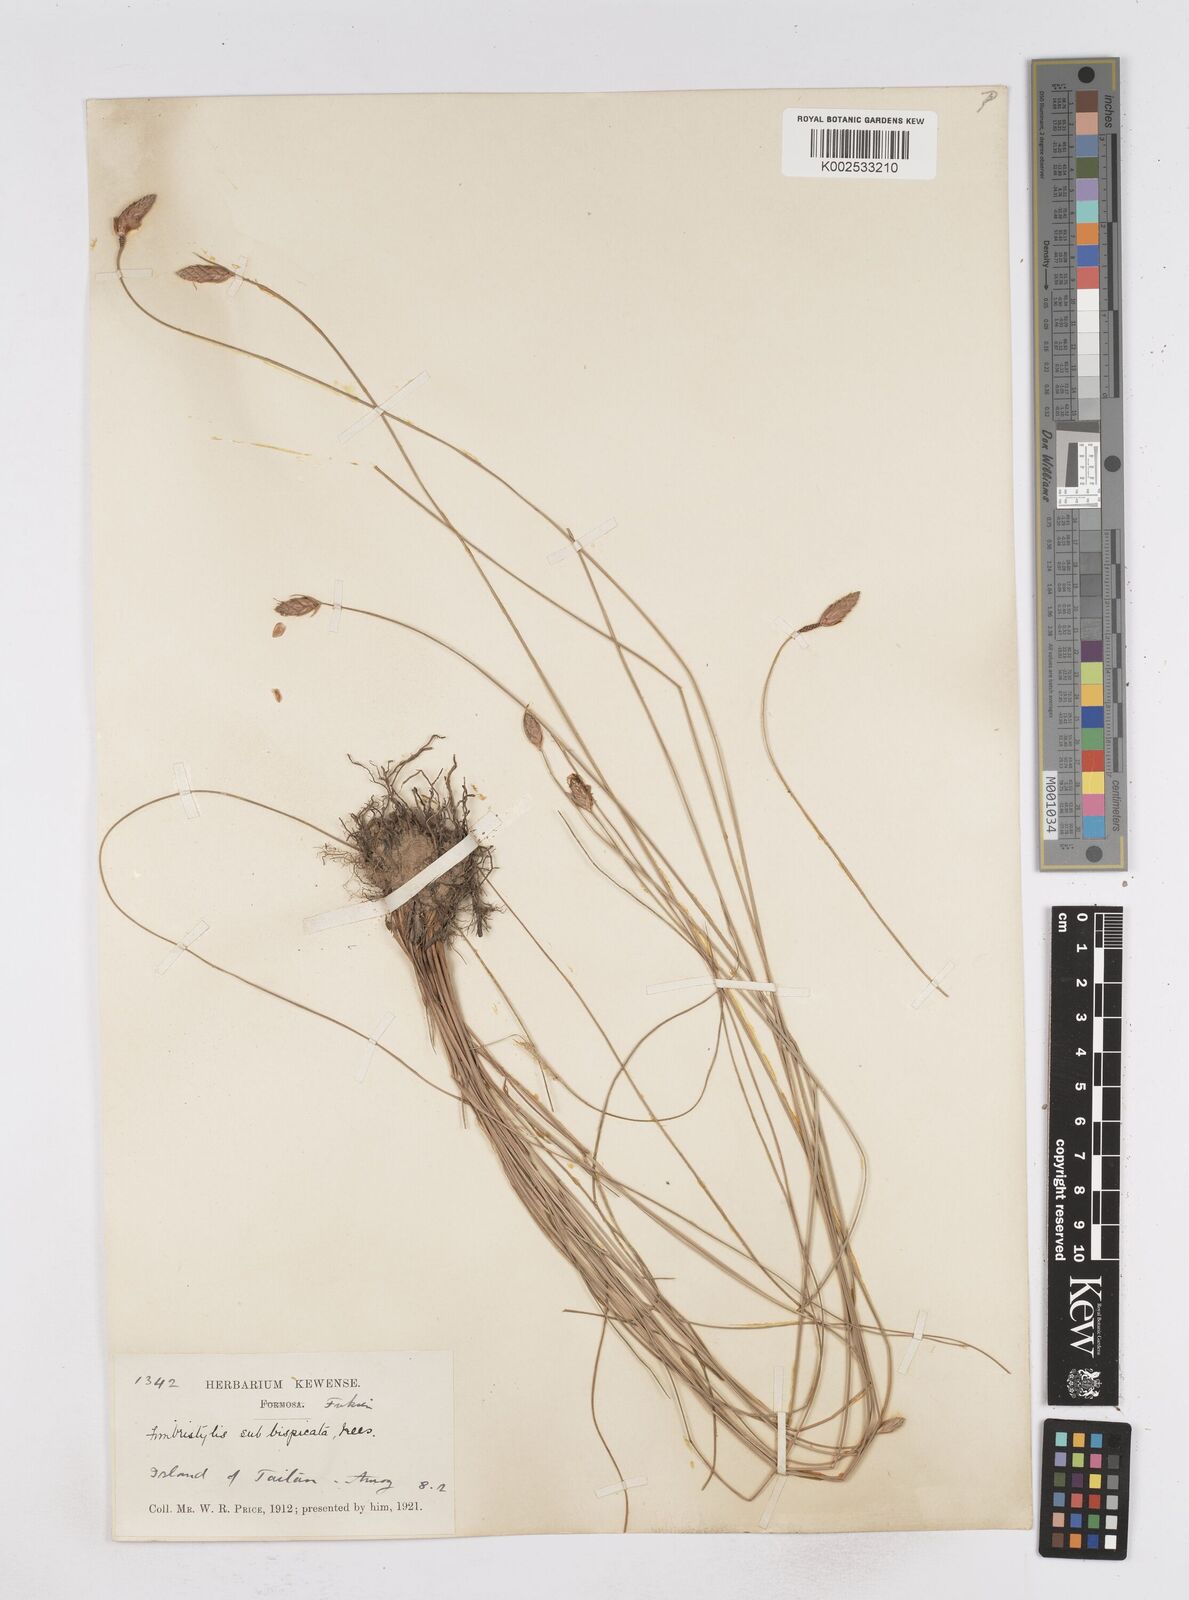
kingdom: Plantae
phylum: Tracheophyta
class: Liliopsida
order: Poales
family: Cyperaceae
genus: Fimbristylis
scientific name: Fimbristylis tristachya
